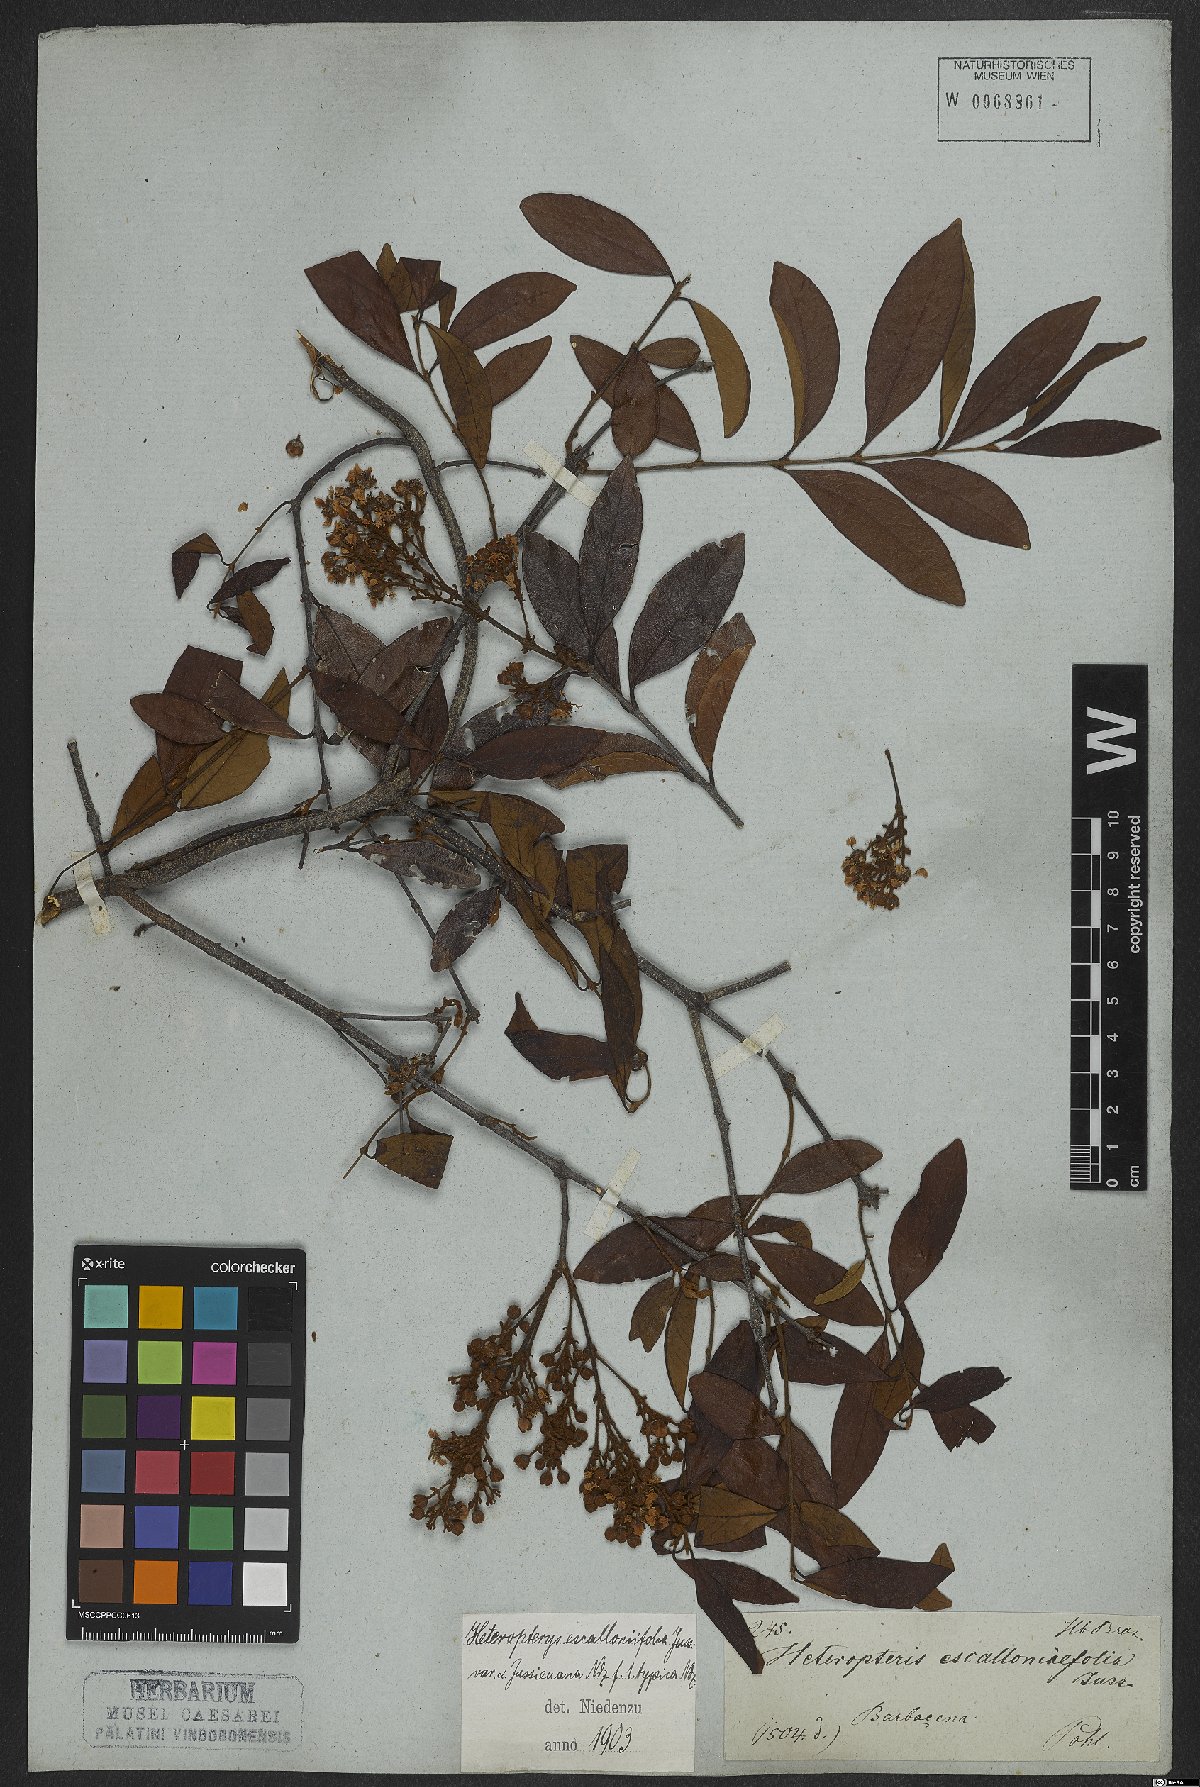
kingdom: Plantae
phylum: Tracheophyta
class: Magnoliopsida
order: Malpighiales
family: Malpighiaceae
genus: Heteropterys
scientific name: Heteropterys escalloniifolia
